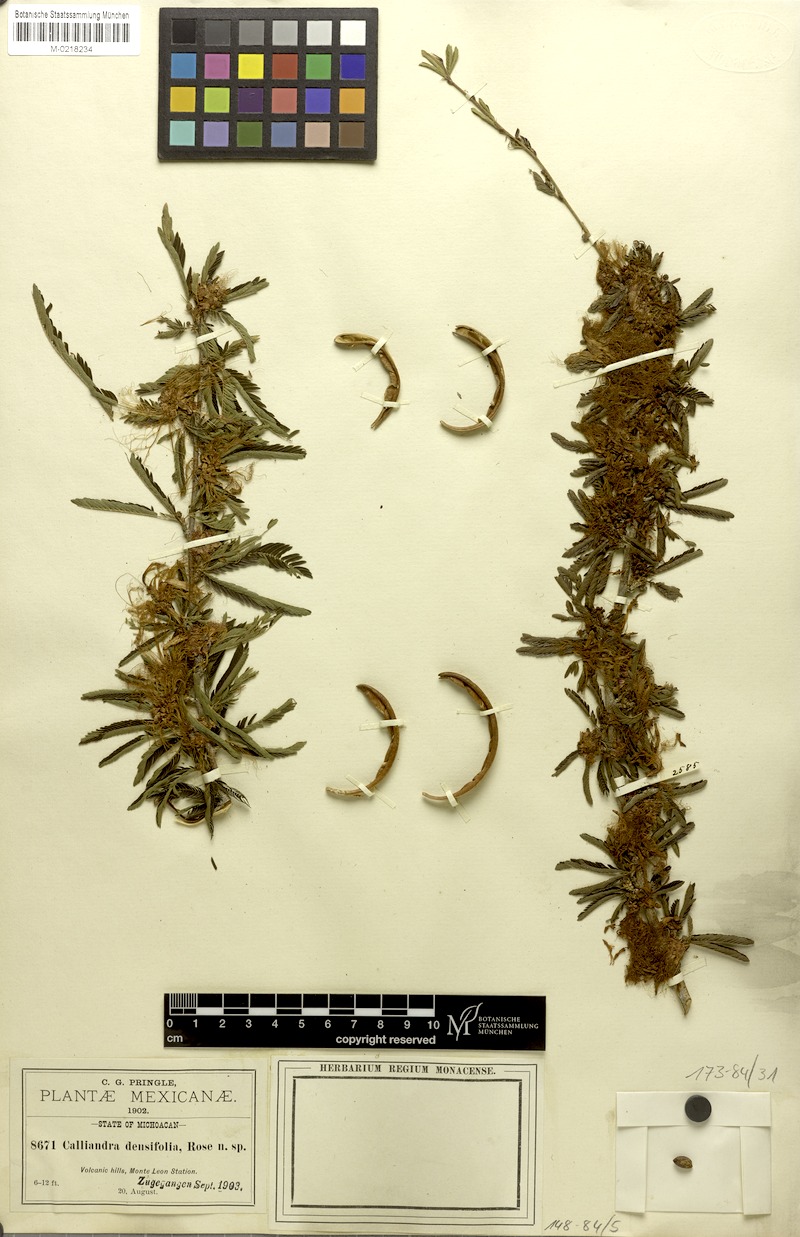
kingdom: Plantae
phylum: Tracheophyta
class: Magnoliopsida
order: Fabales
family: Fabaceae
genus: Calliandra
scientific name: Calliandra caeciliae
